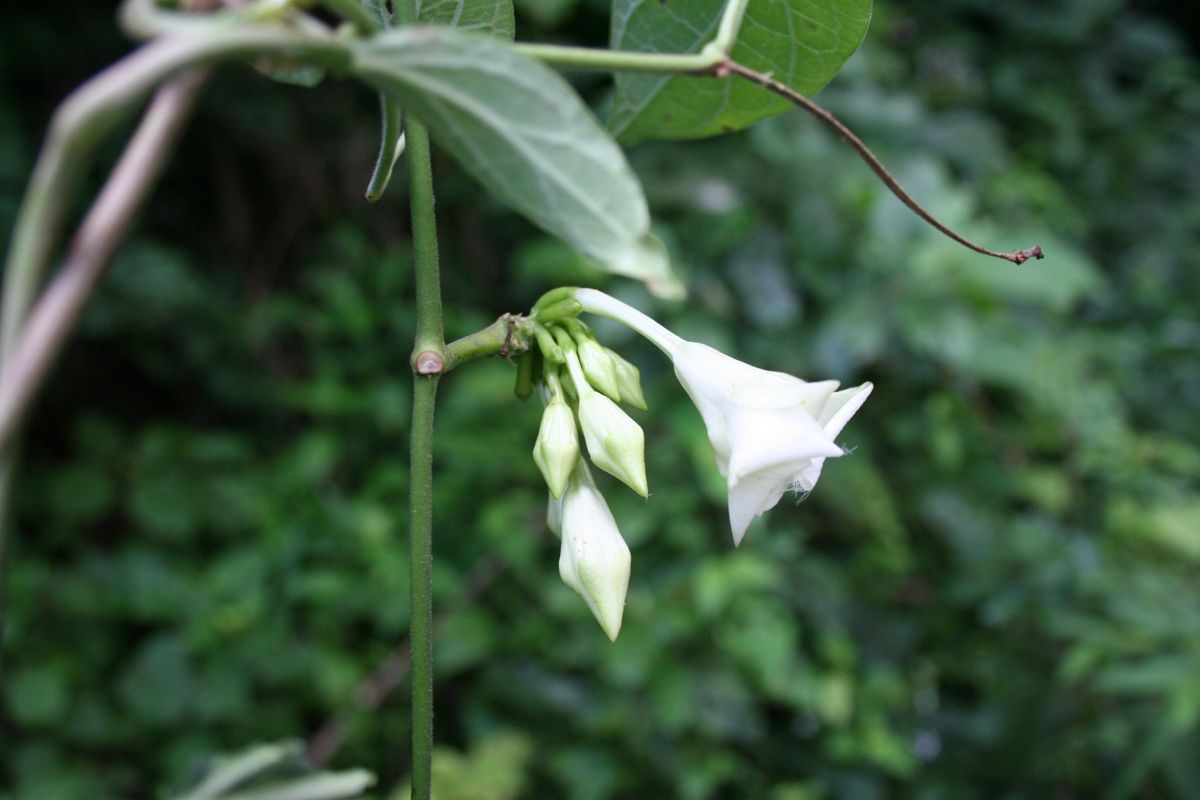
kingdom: Plantae
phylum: Tracheophyta
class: Magnoliopsida
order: Gentianales
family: Apocynaceae
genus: Echites
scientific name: Echites panduratus
